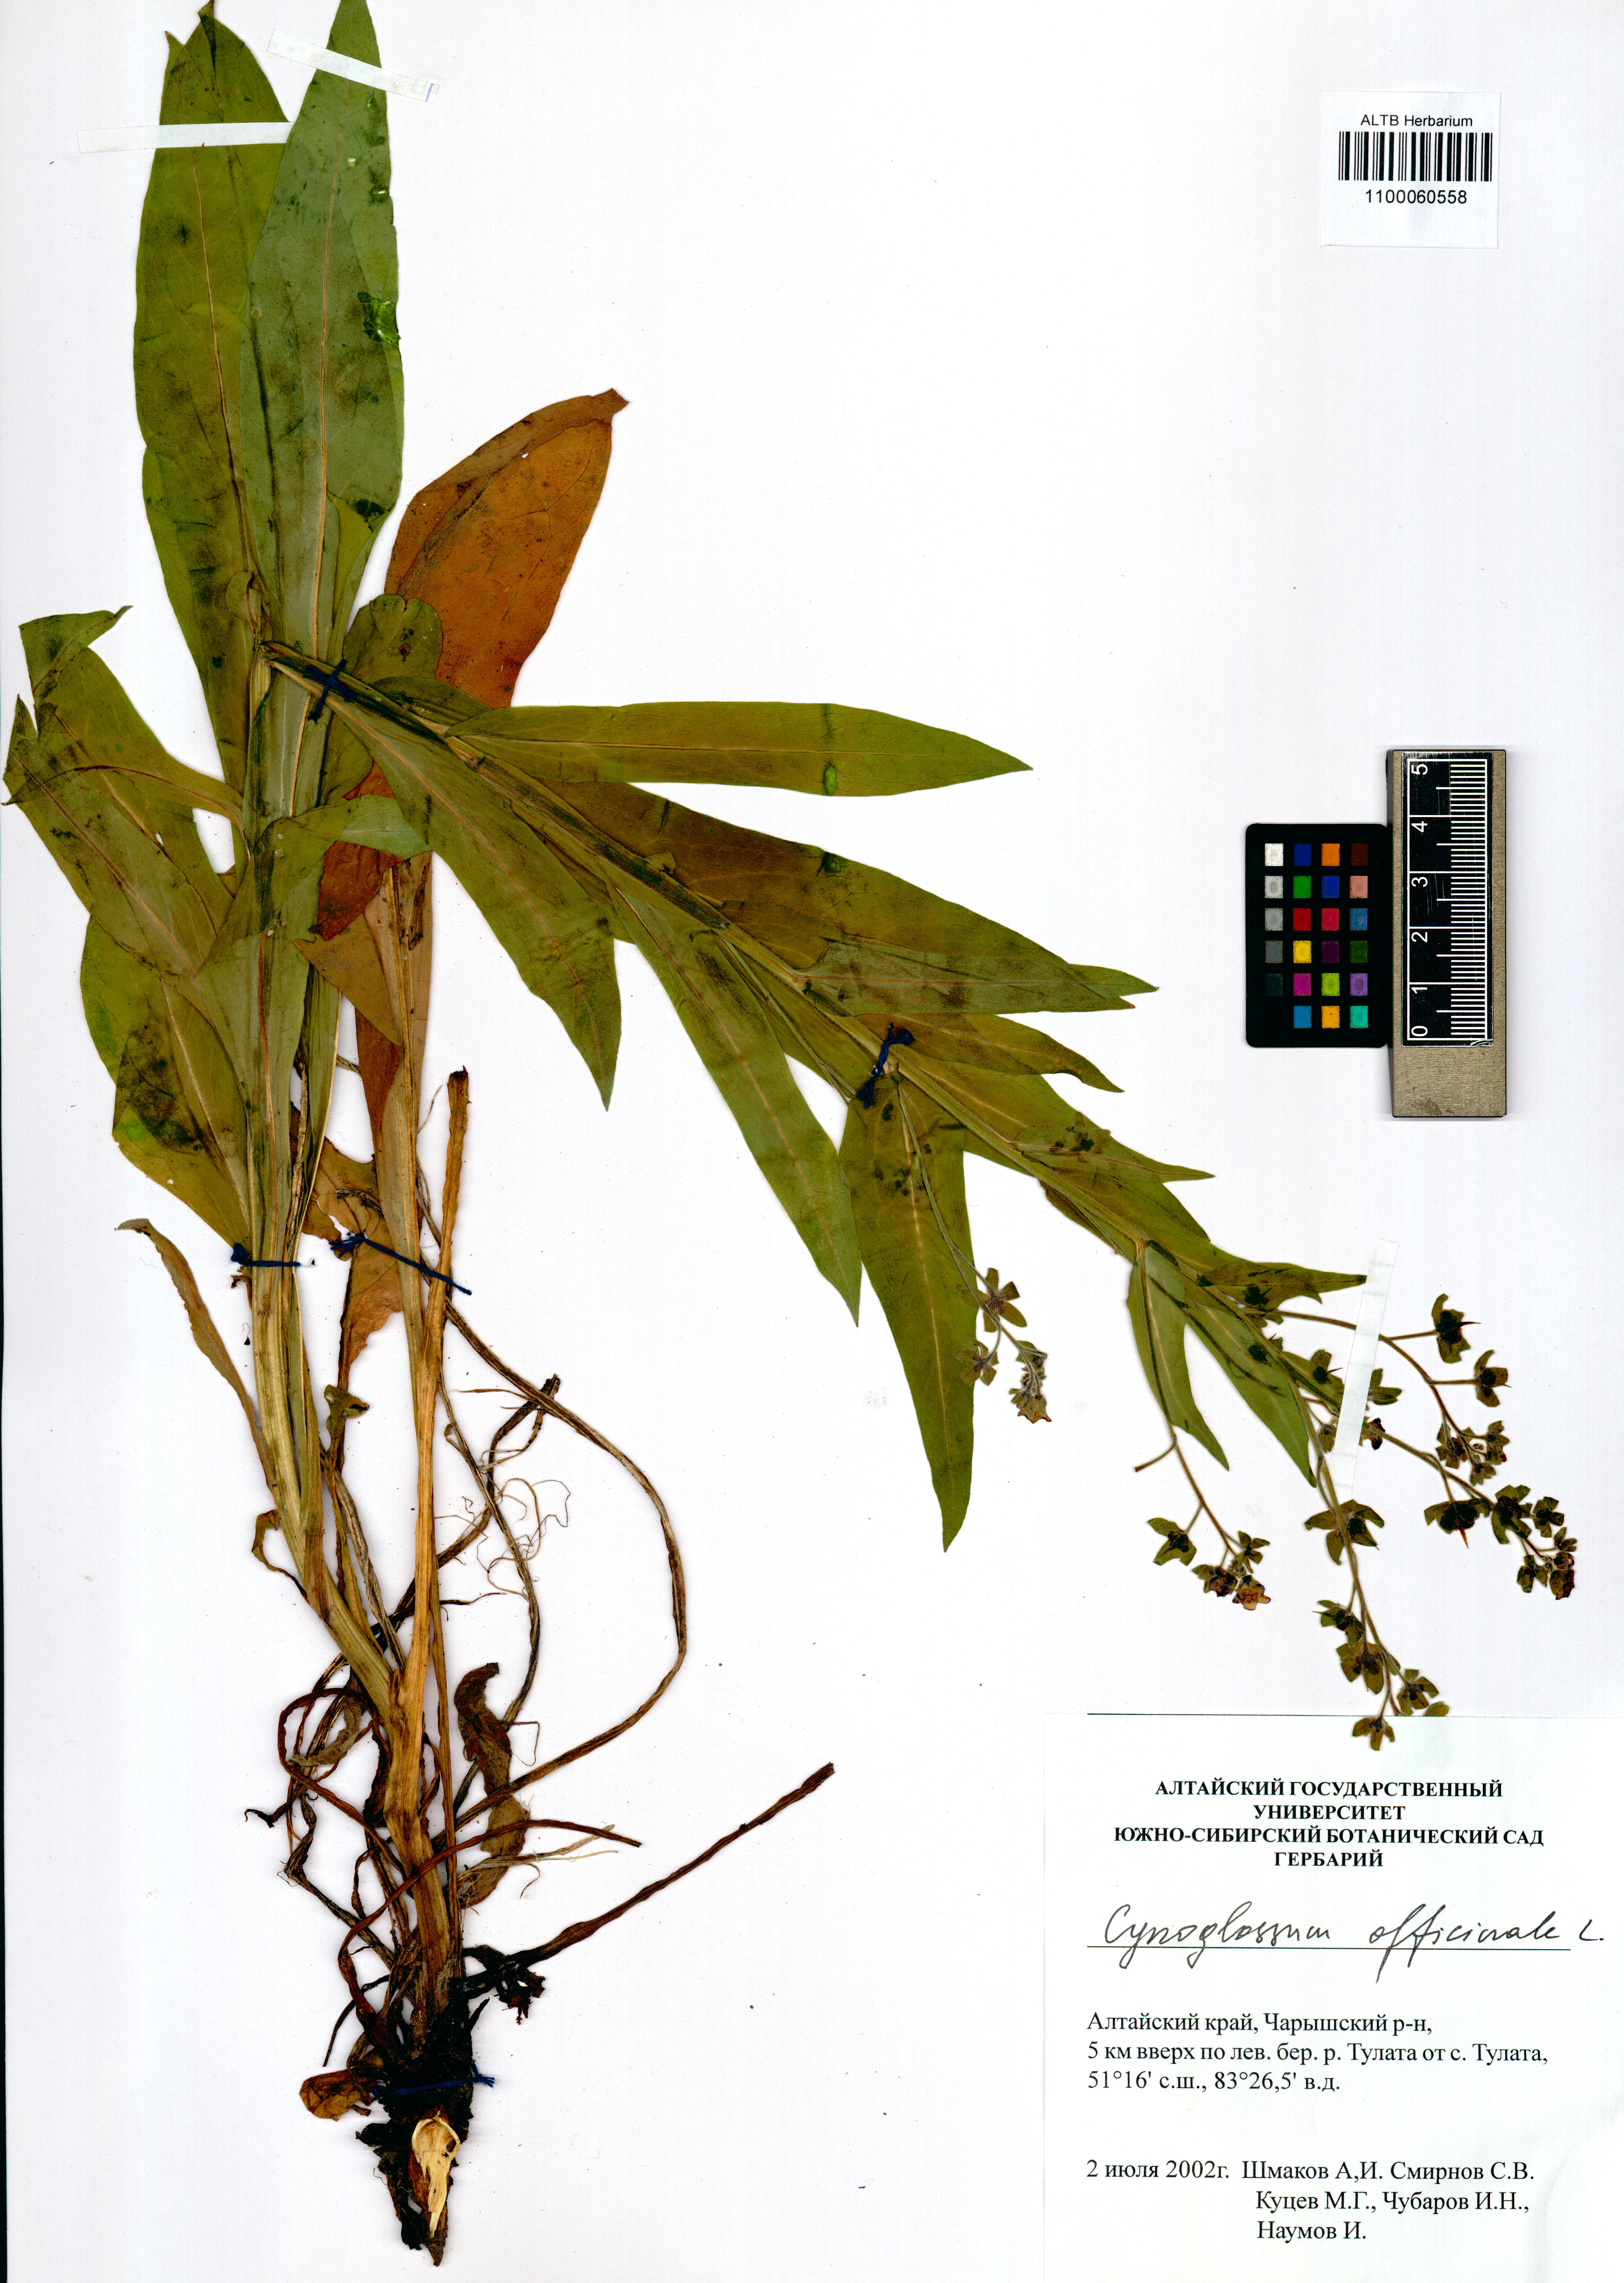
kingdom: Plantae
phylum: Tracheophyta
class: Magnoliopsida
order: Boraginales
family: Boraginaceae
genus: Cynoglossum
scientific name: Cynoglossum officinale
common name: Hound's-tongue
